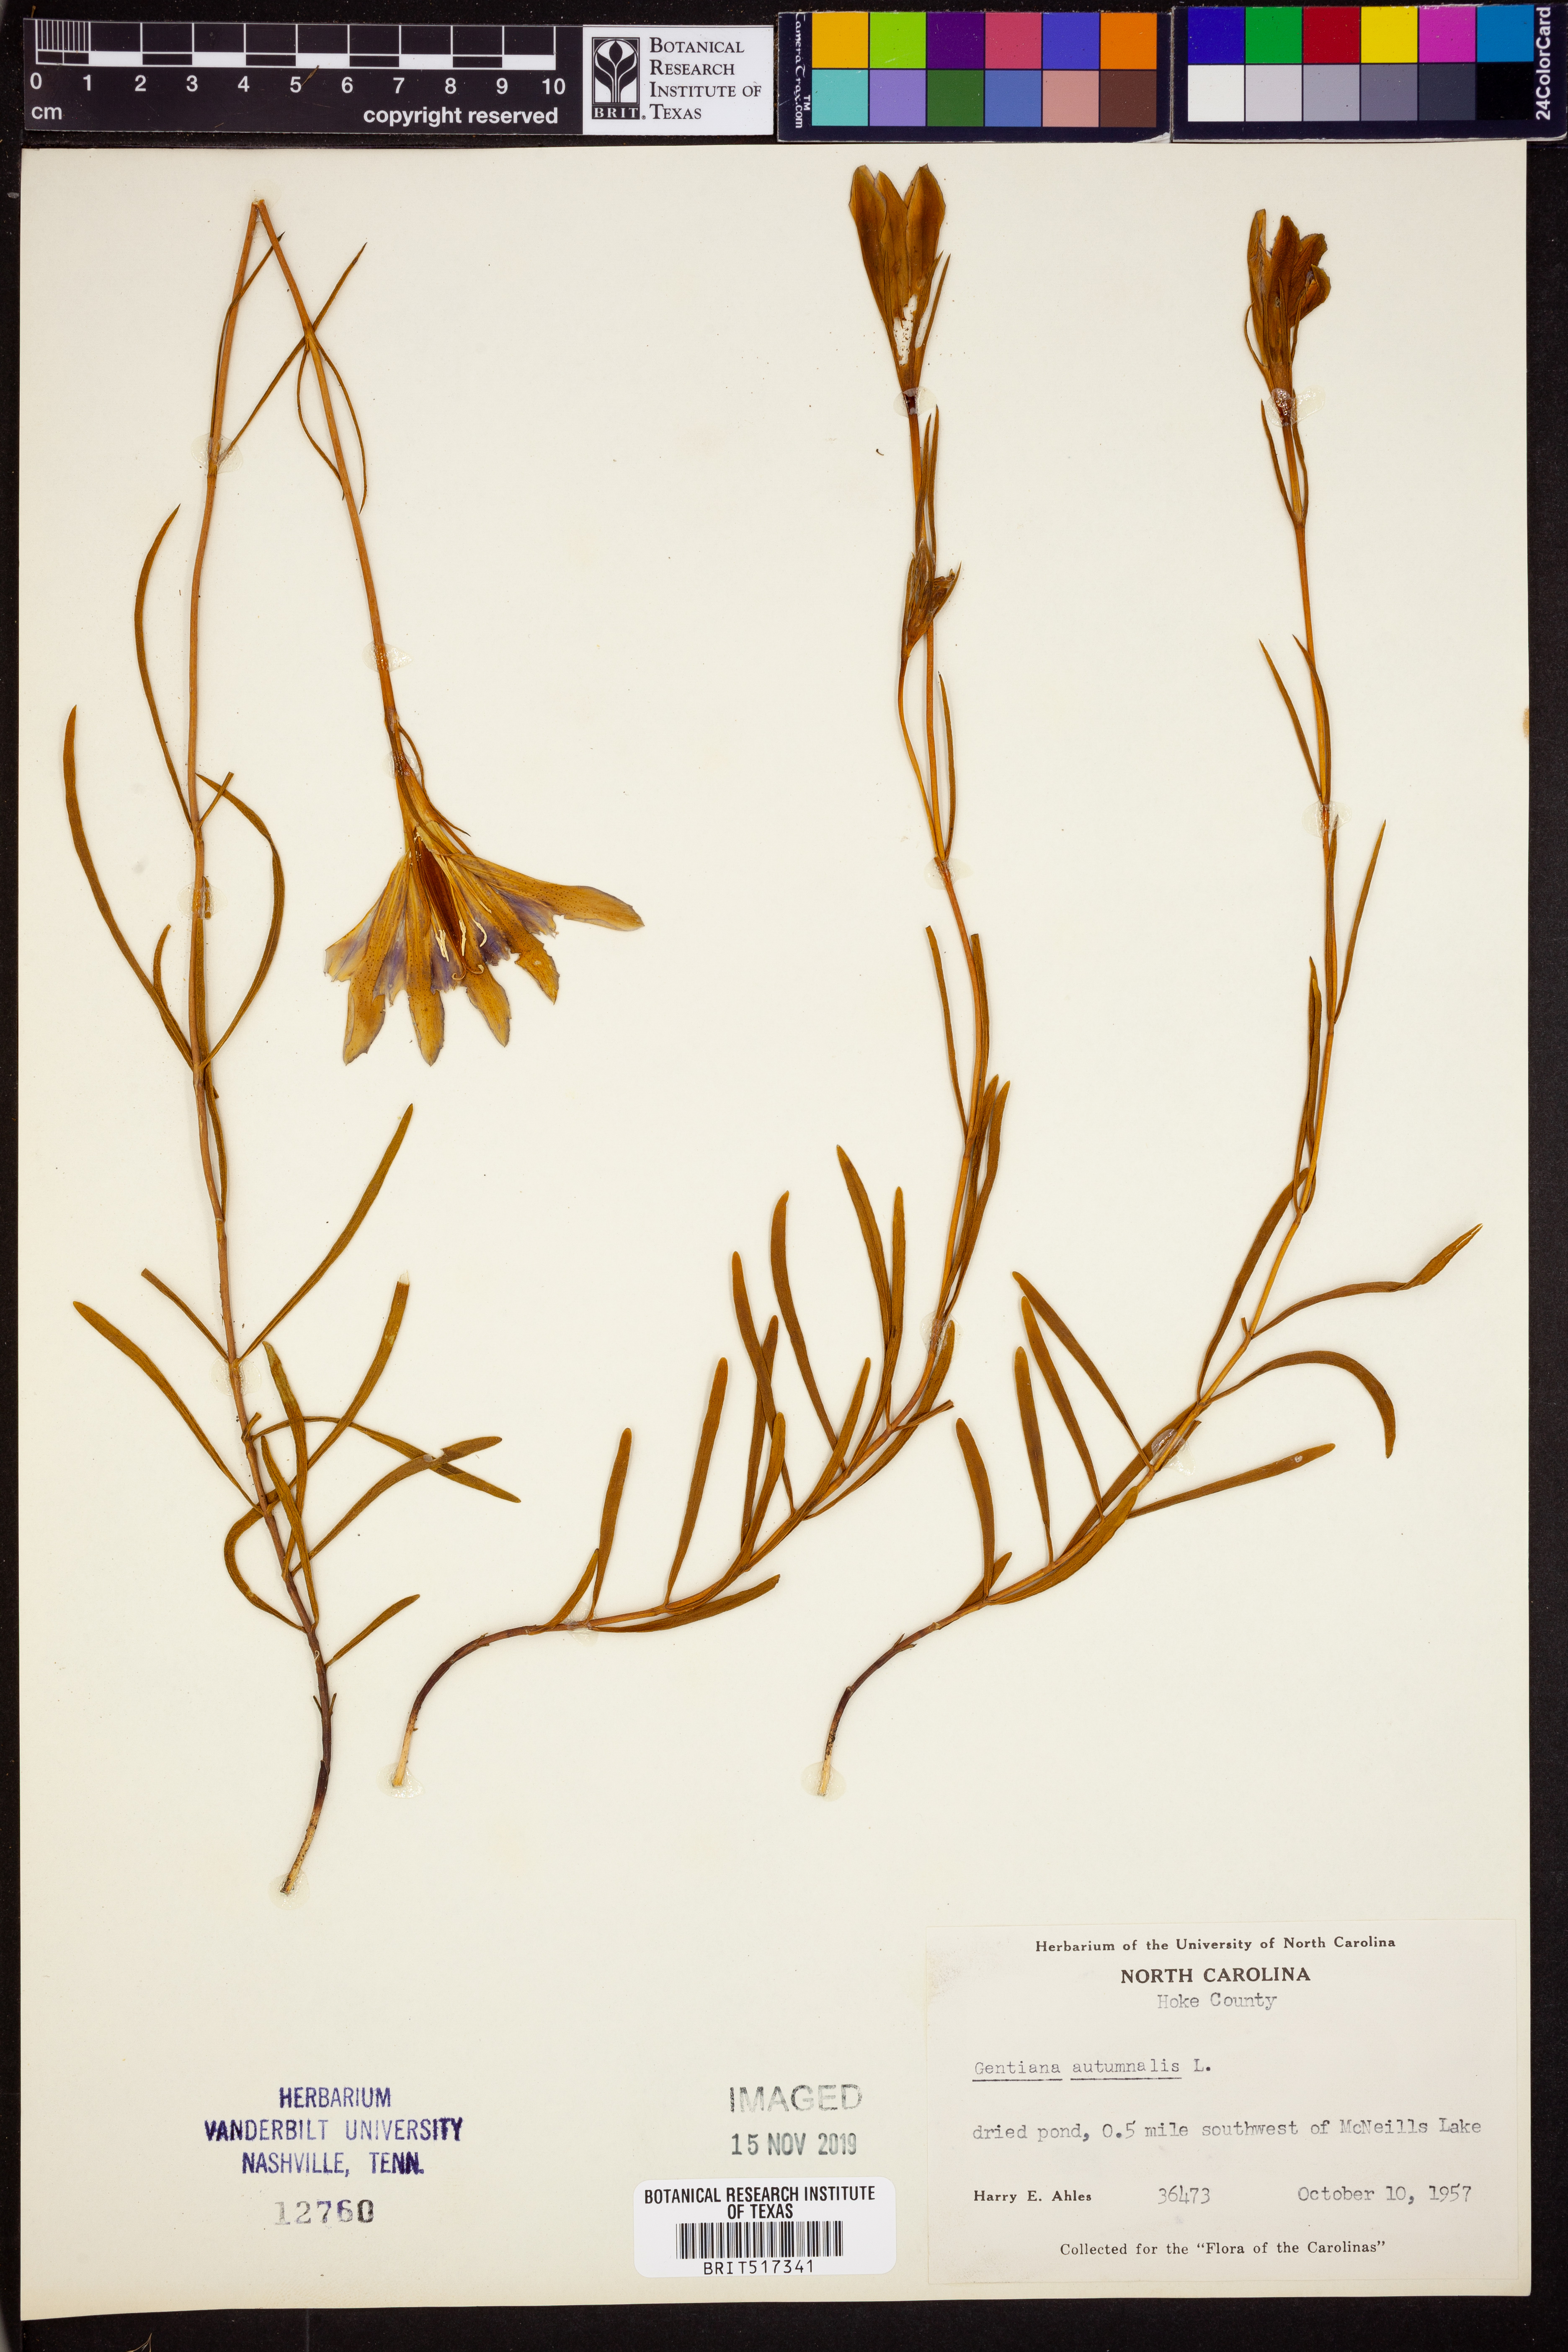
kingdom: Plantae
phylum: Tracheophyta
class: Magnoliopsida
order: Gentianales
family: Gentianaceae
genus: Gentiana
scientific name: Gentiana autumnalis
